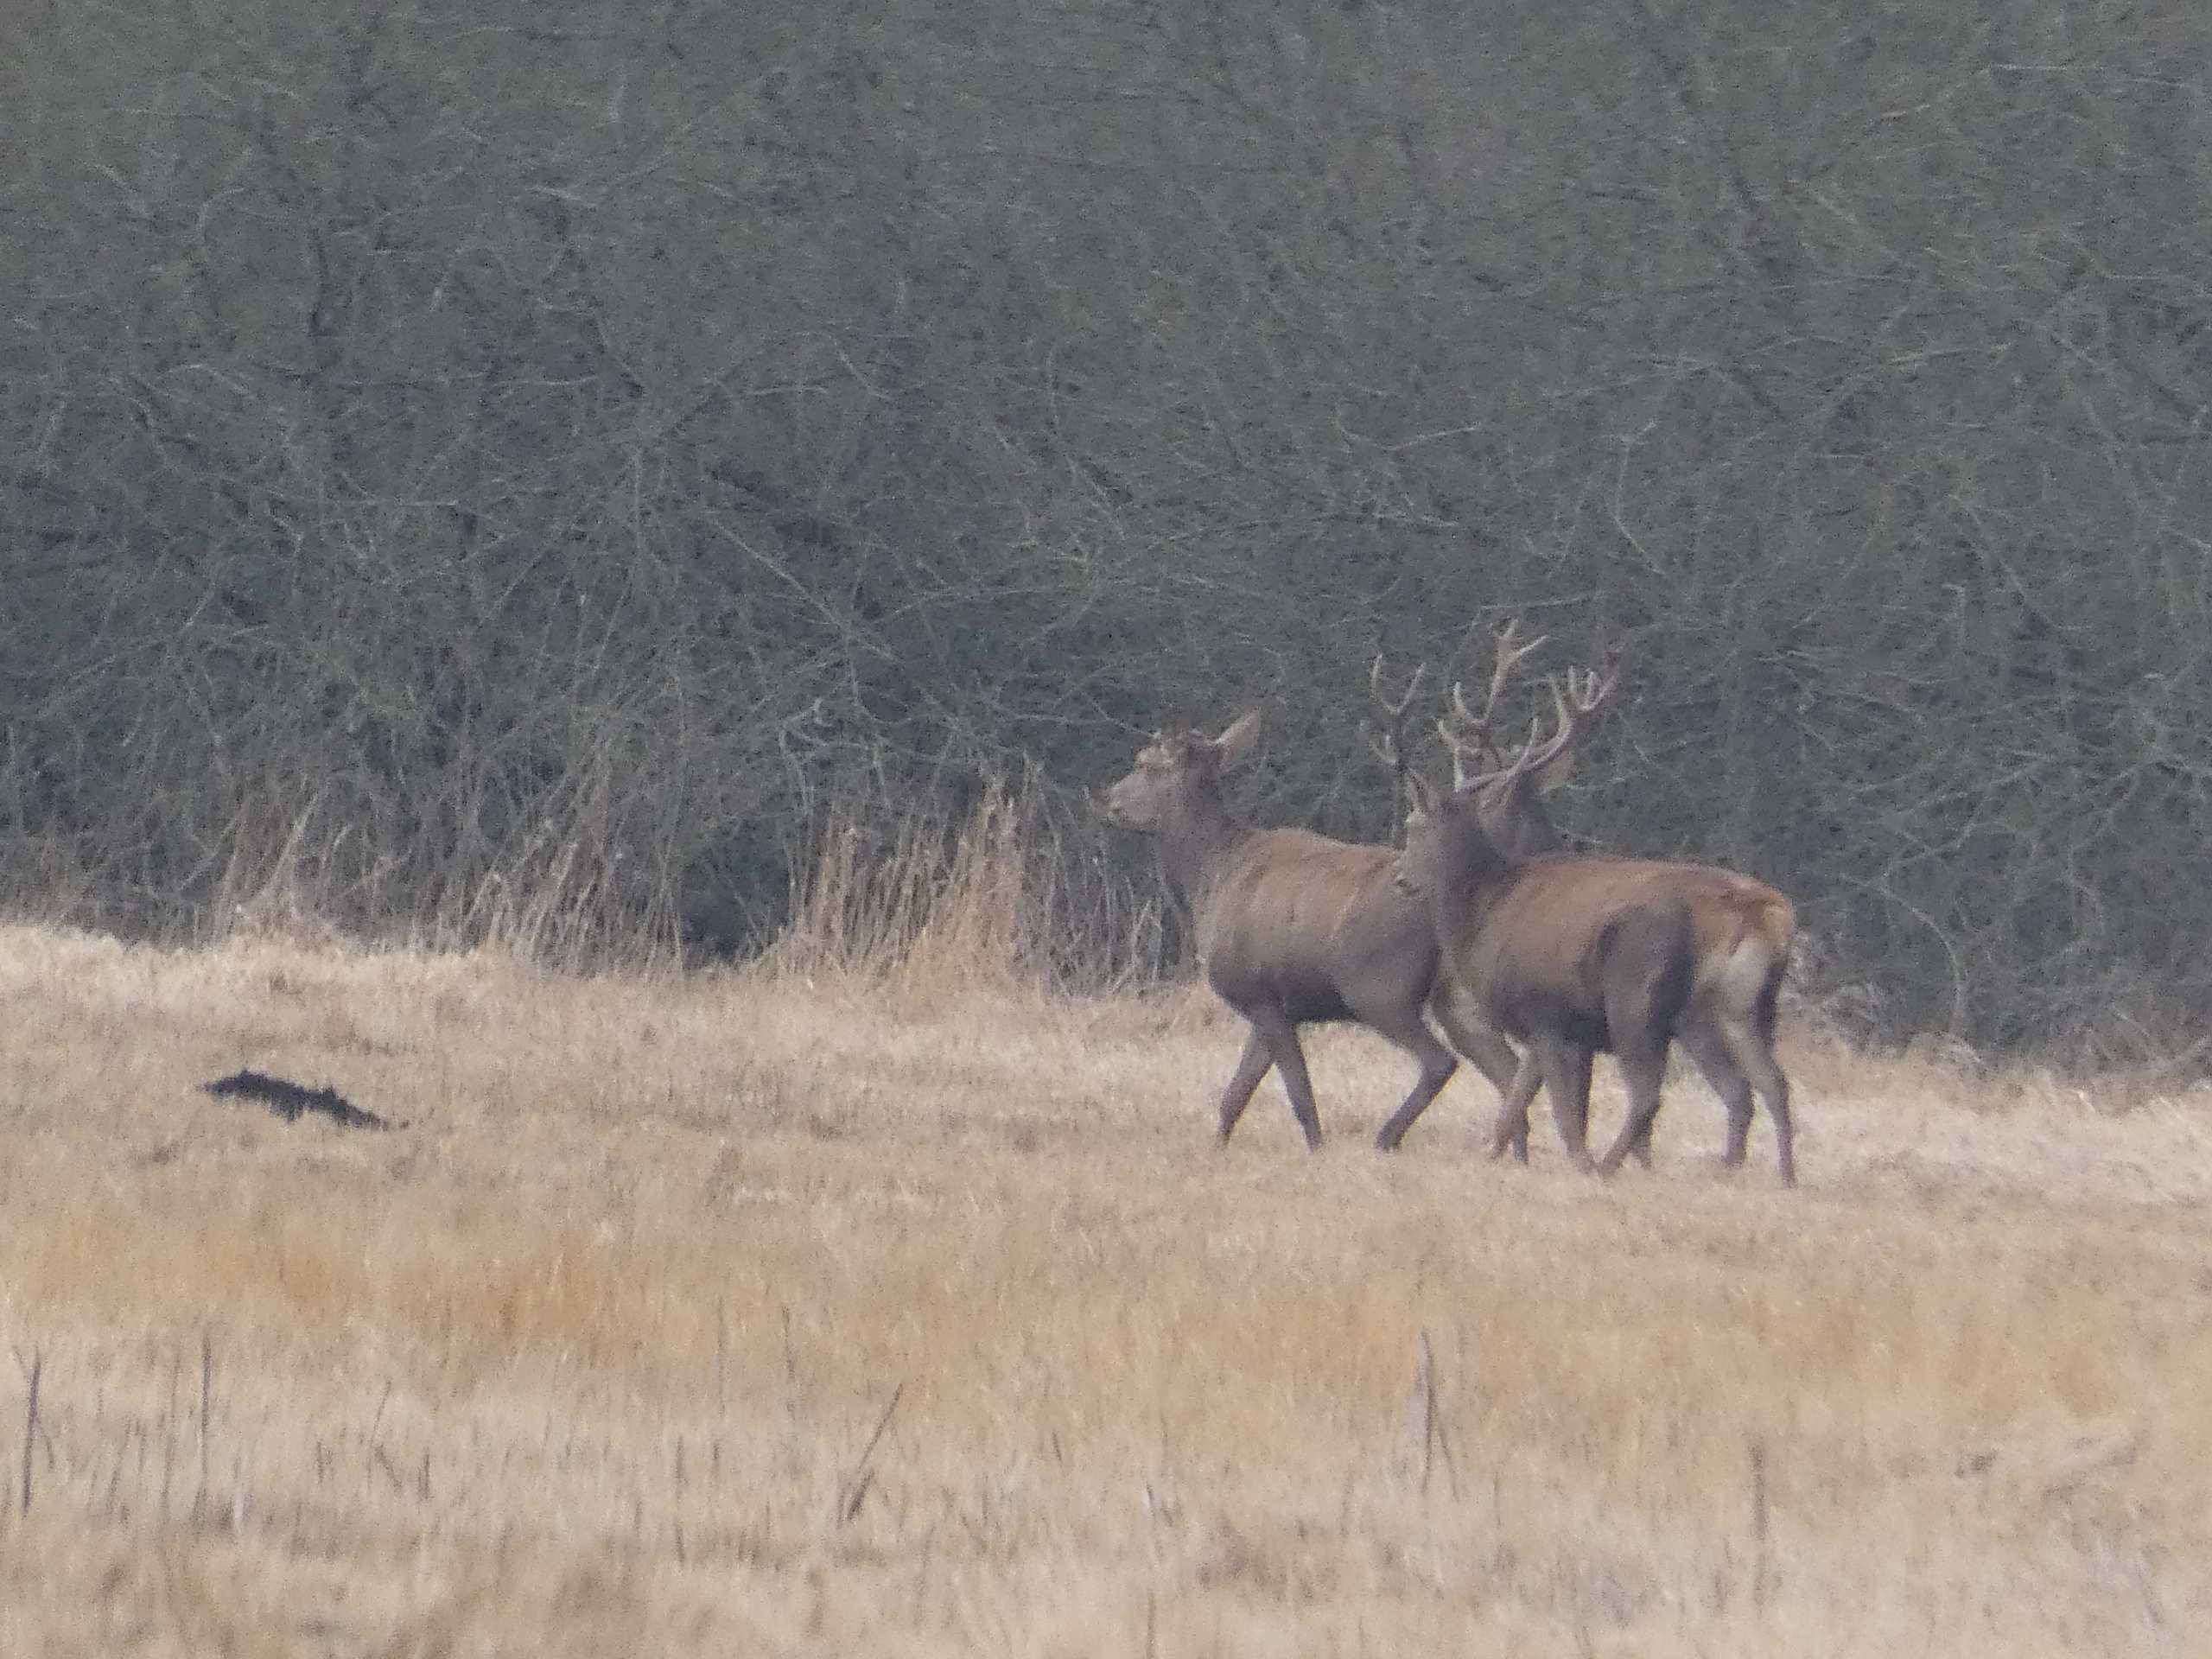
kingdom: Animalia
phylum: Chordata
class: Mammalia
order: Artiodactyla
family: Cervidae
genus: Cervus
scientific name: Cervus elaphus
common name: Krondyr
